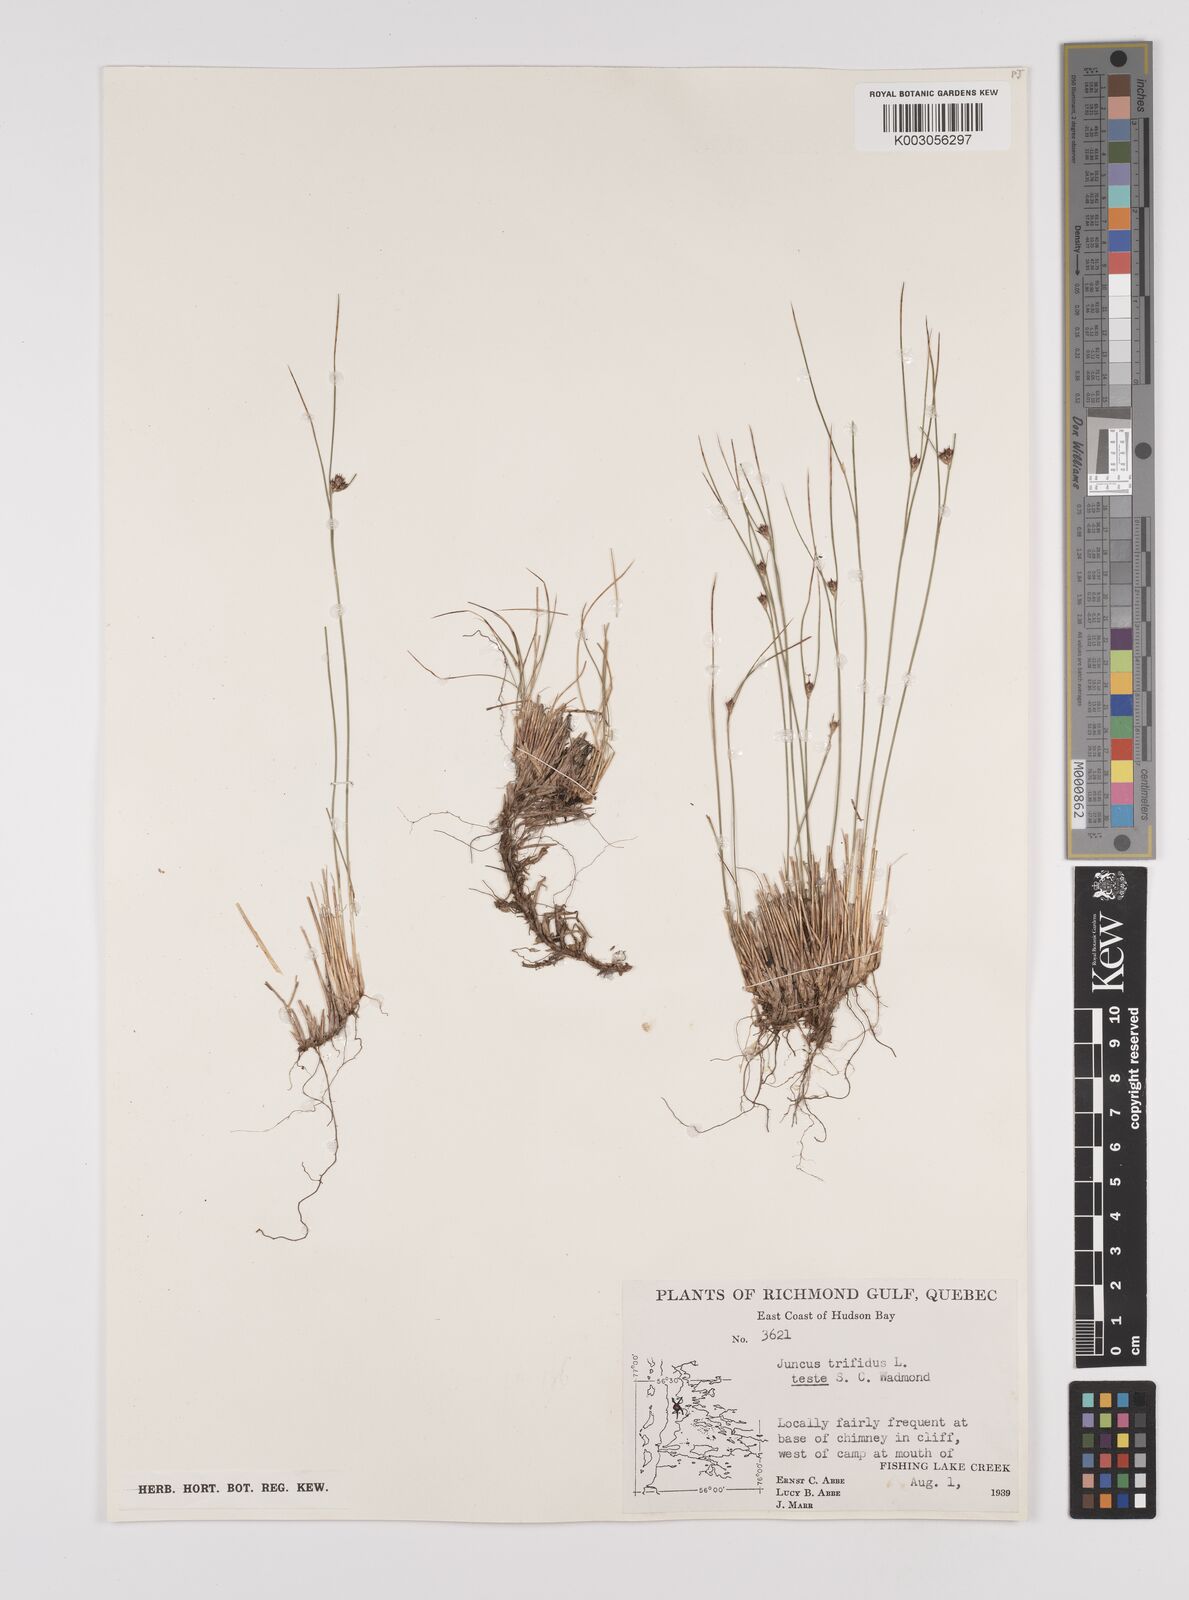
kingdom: Plantae
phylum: Tracheophyta
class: Liliopsida
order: Poales
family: Juncaceae
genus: Oreojuncus
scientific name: Oreojuncus trifidus
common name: Highland rush
